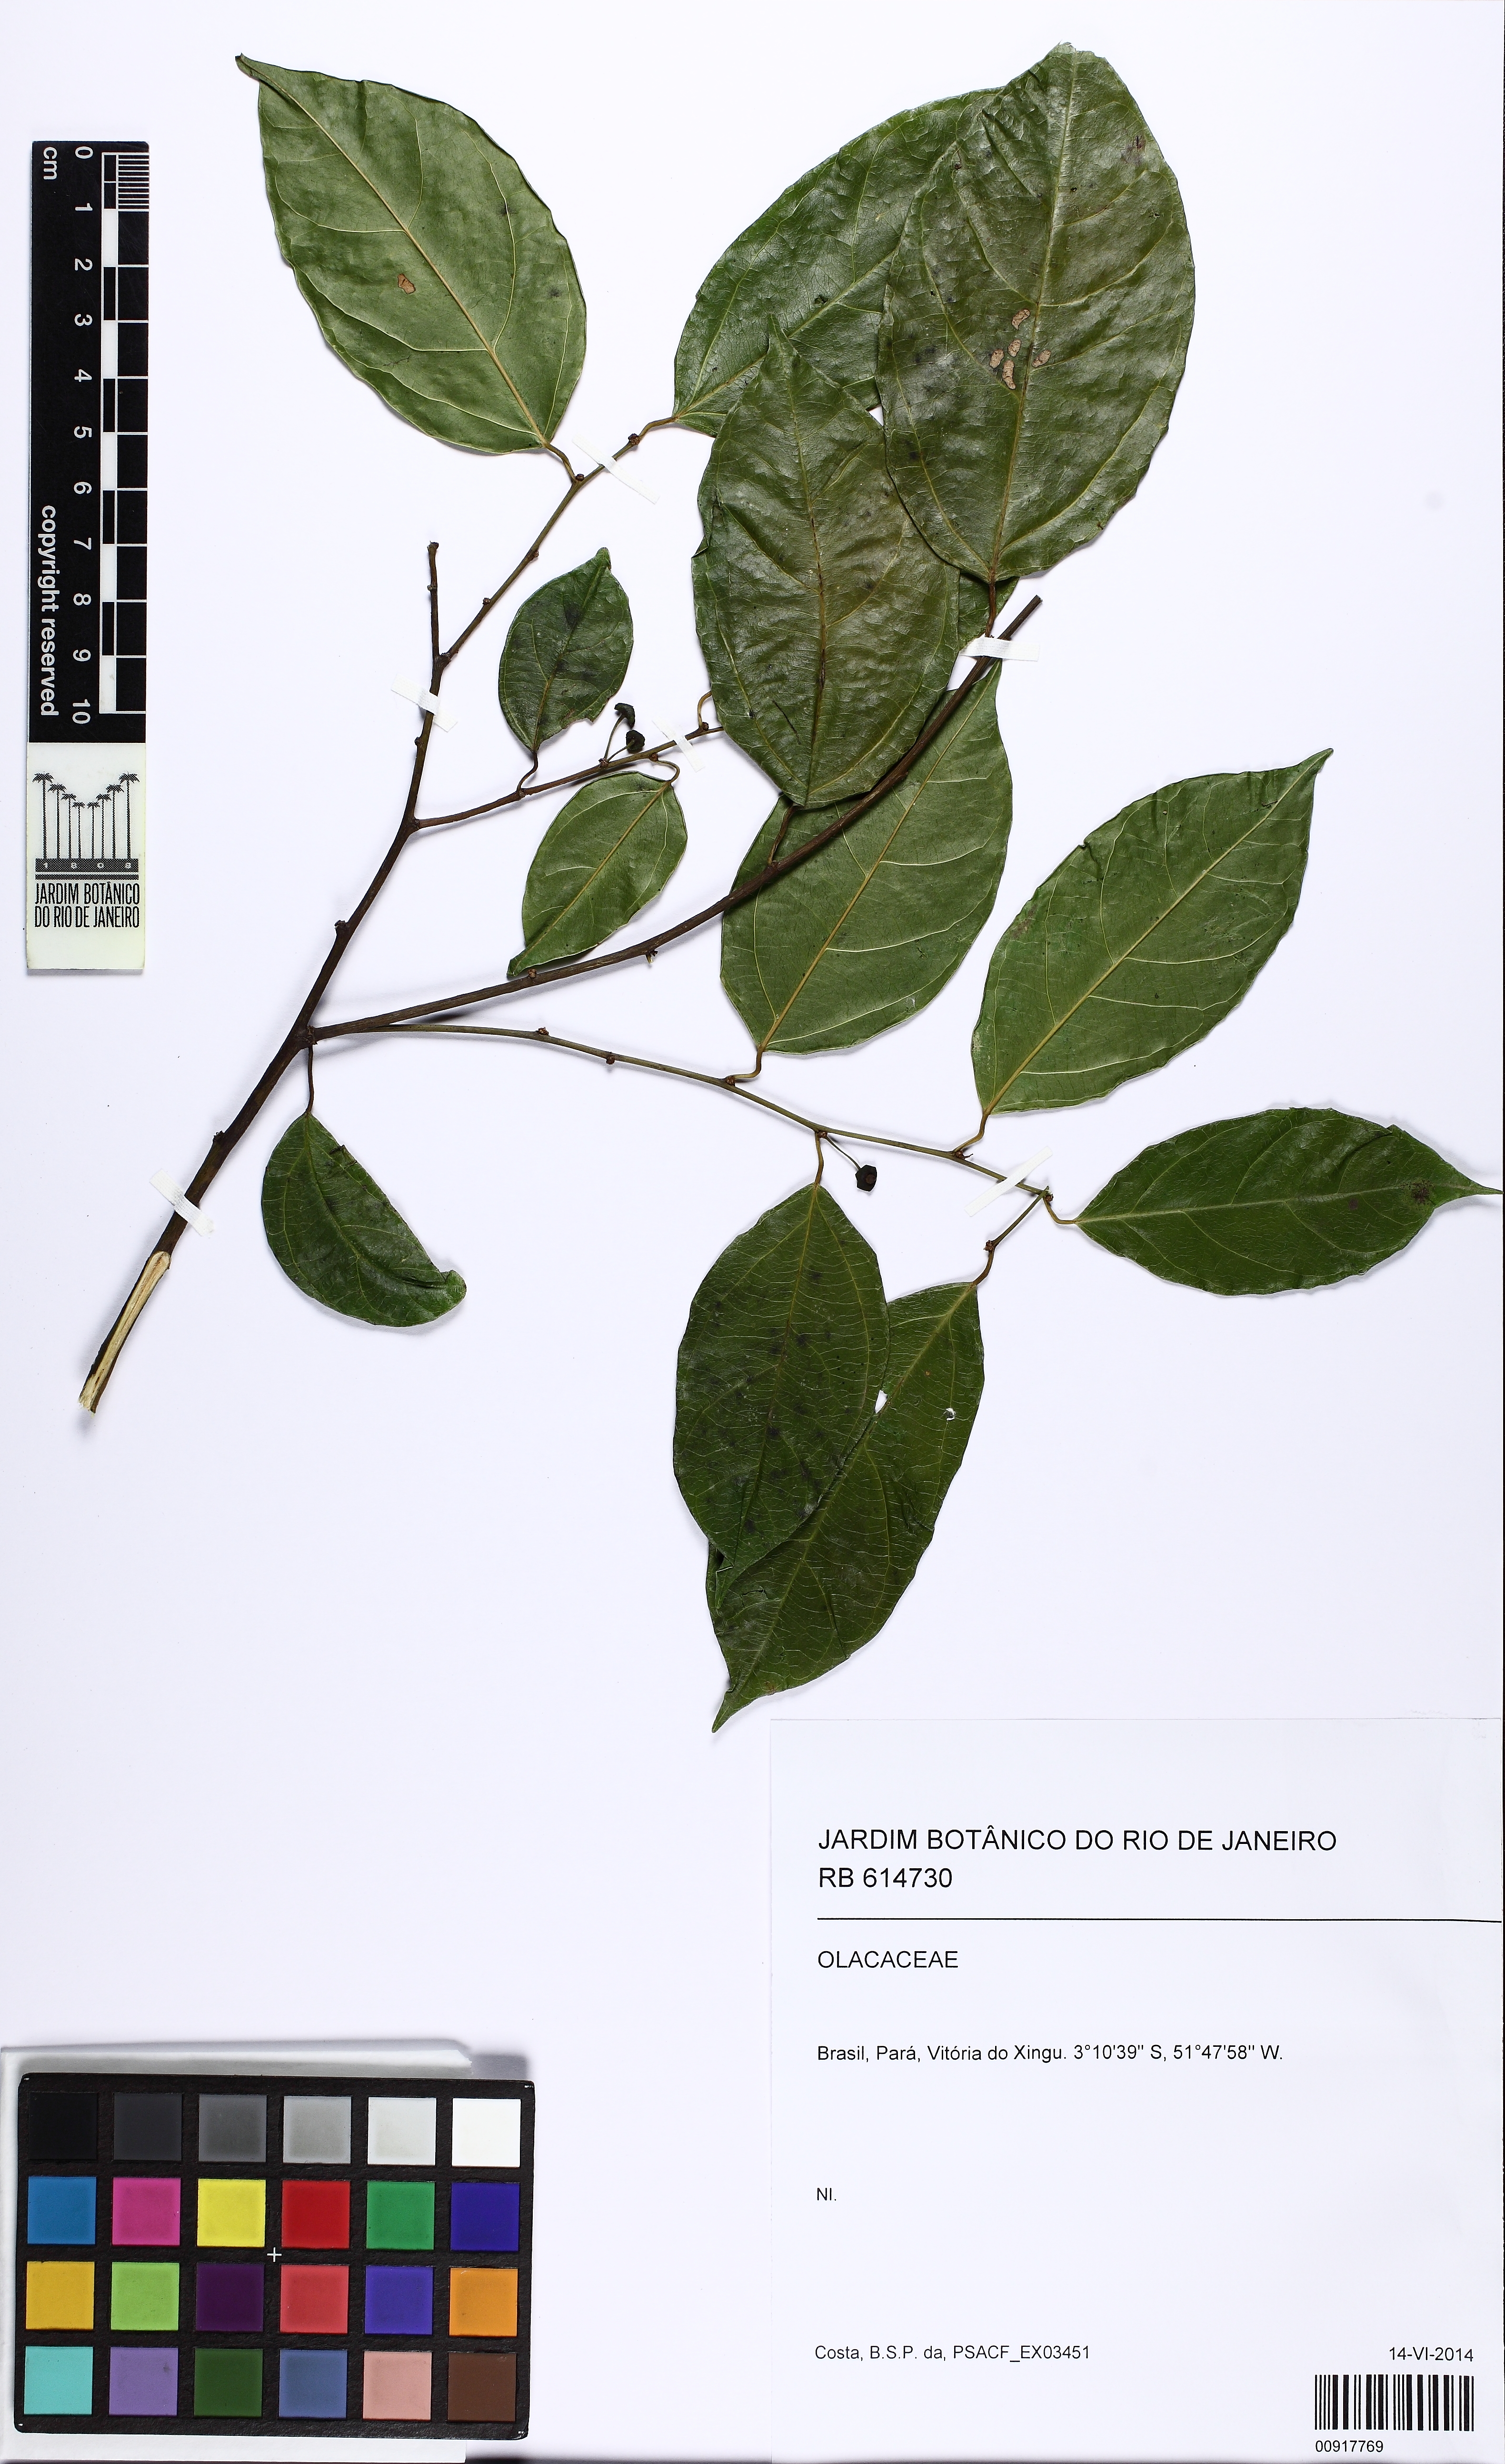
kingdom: Plantae
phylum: Tracheophyta
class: Magnoliopsida
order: Santalales
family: Erythropalaceae
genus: Heisteria
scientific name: Heisteria scandens
